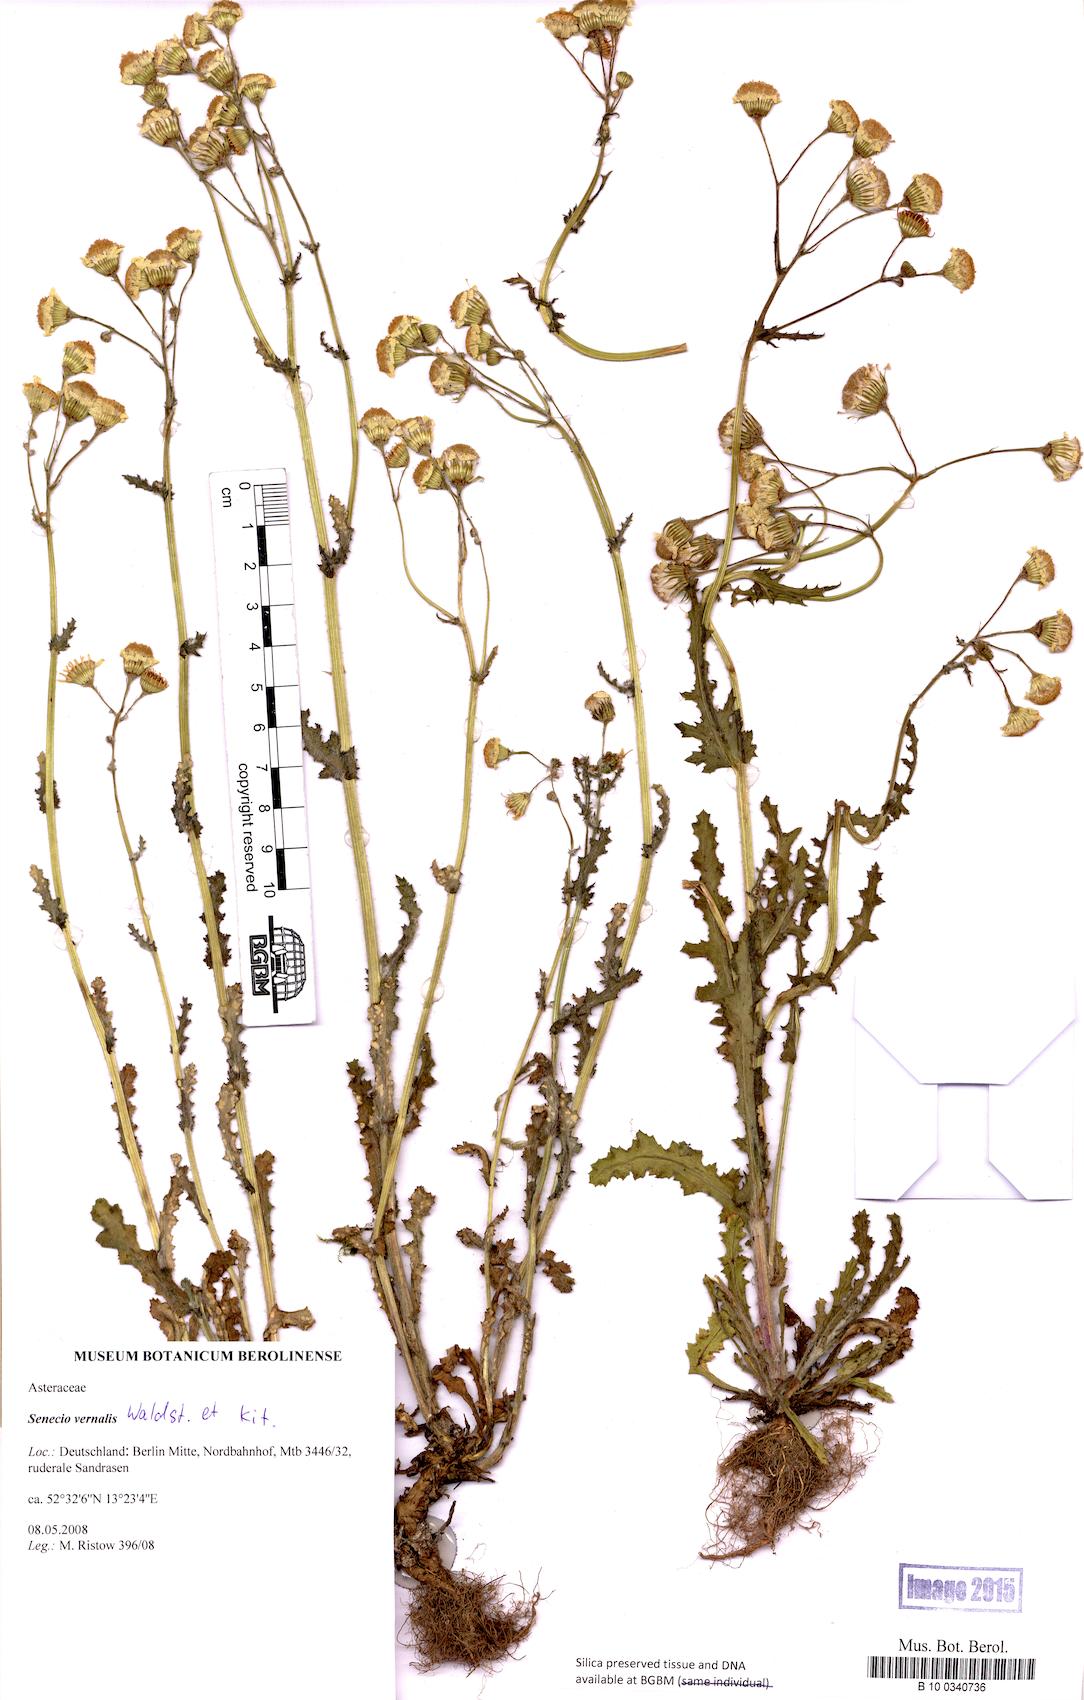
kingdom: Plantae
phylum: Tracheophyta
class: Magnoliopsida
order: Asterales
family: Asteraceae
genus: Senecio
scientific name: Senecio vernalis
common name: Eastern groundsel
